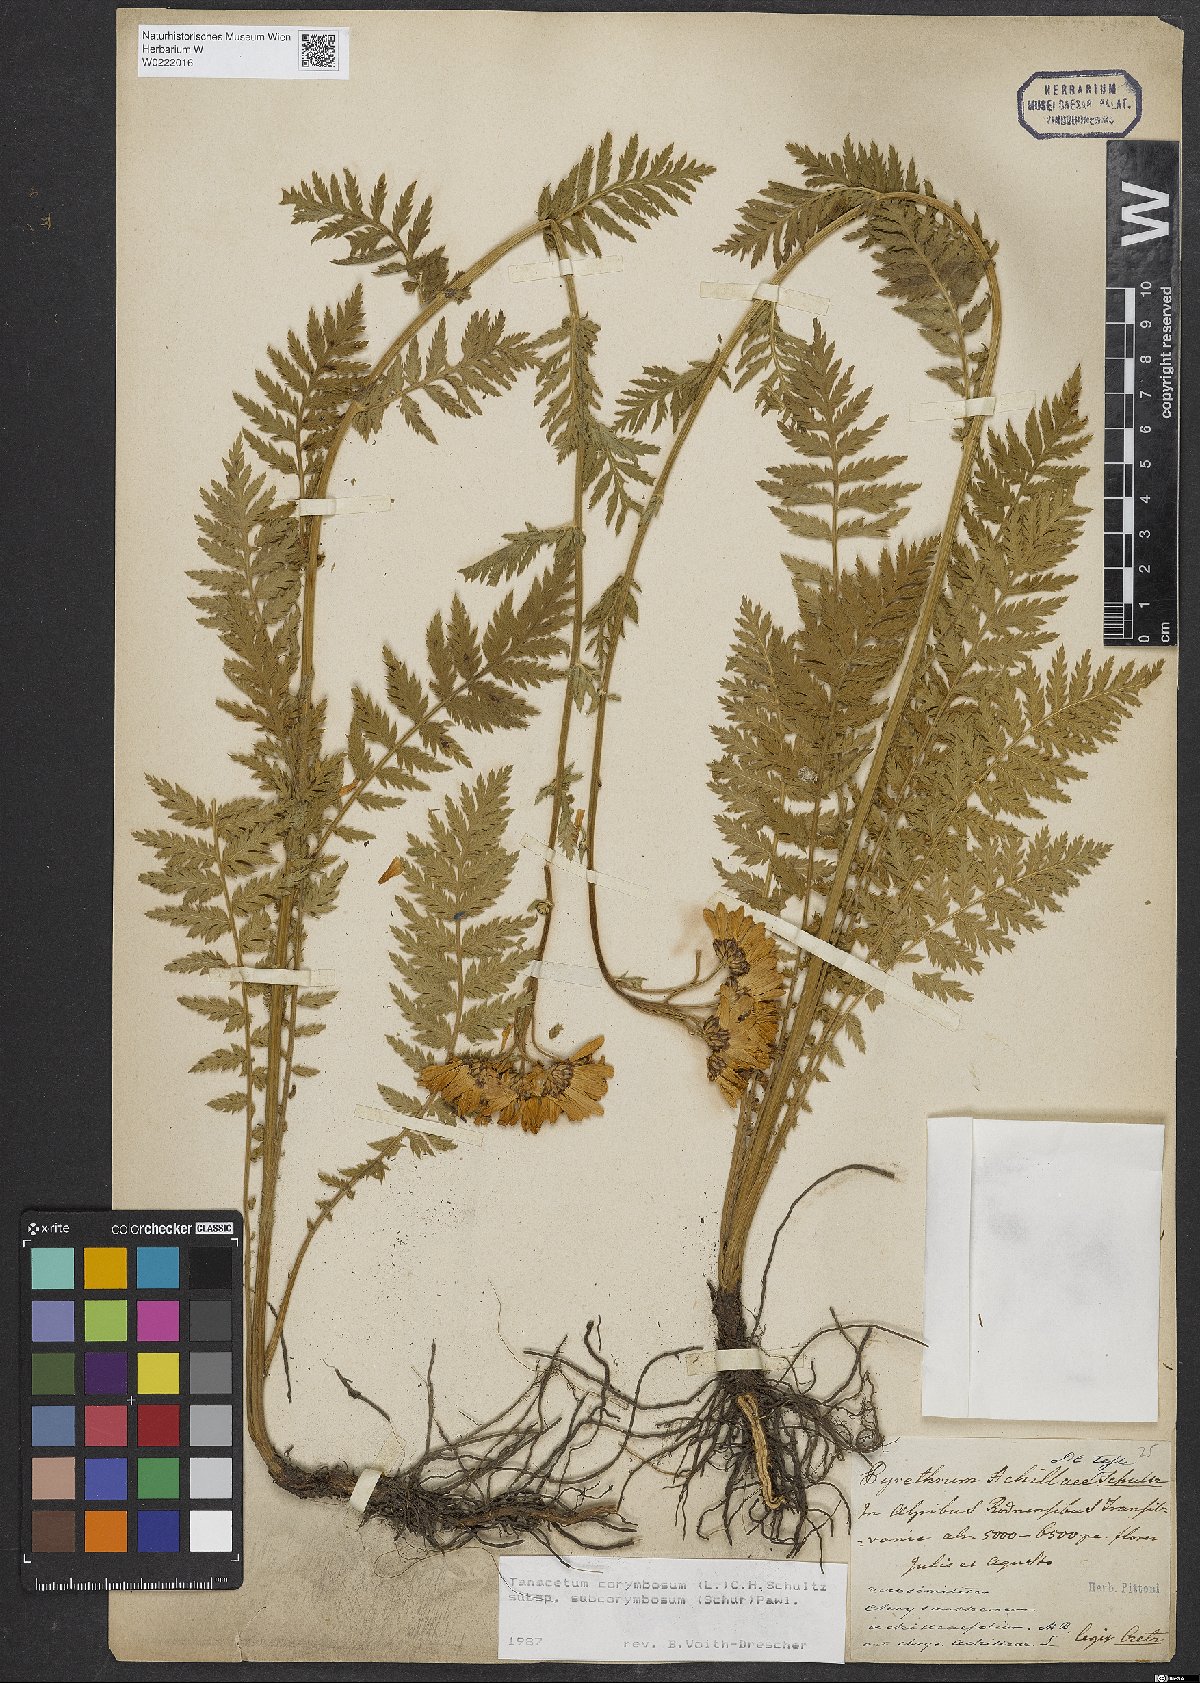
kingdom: Plantae
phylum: Tracheophyta
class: Magnoliopsida
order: Asterales
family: Asteraceae
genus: Tanacetum
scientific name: Tanacetum corymbosum
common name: Scentless feverfew
